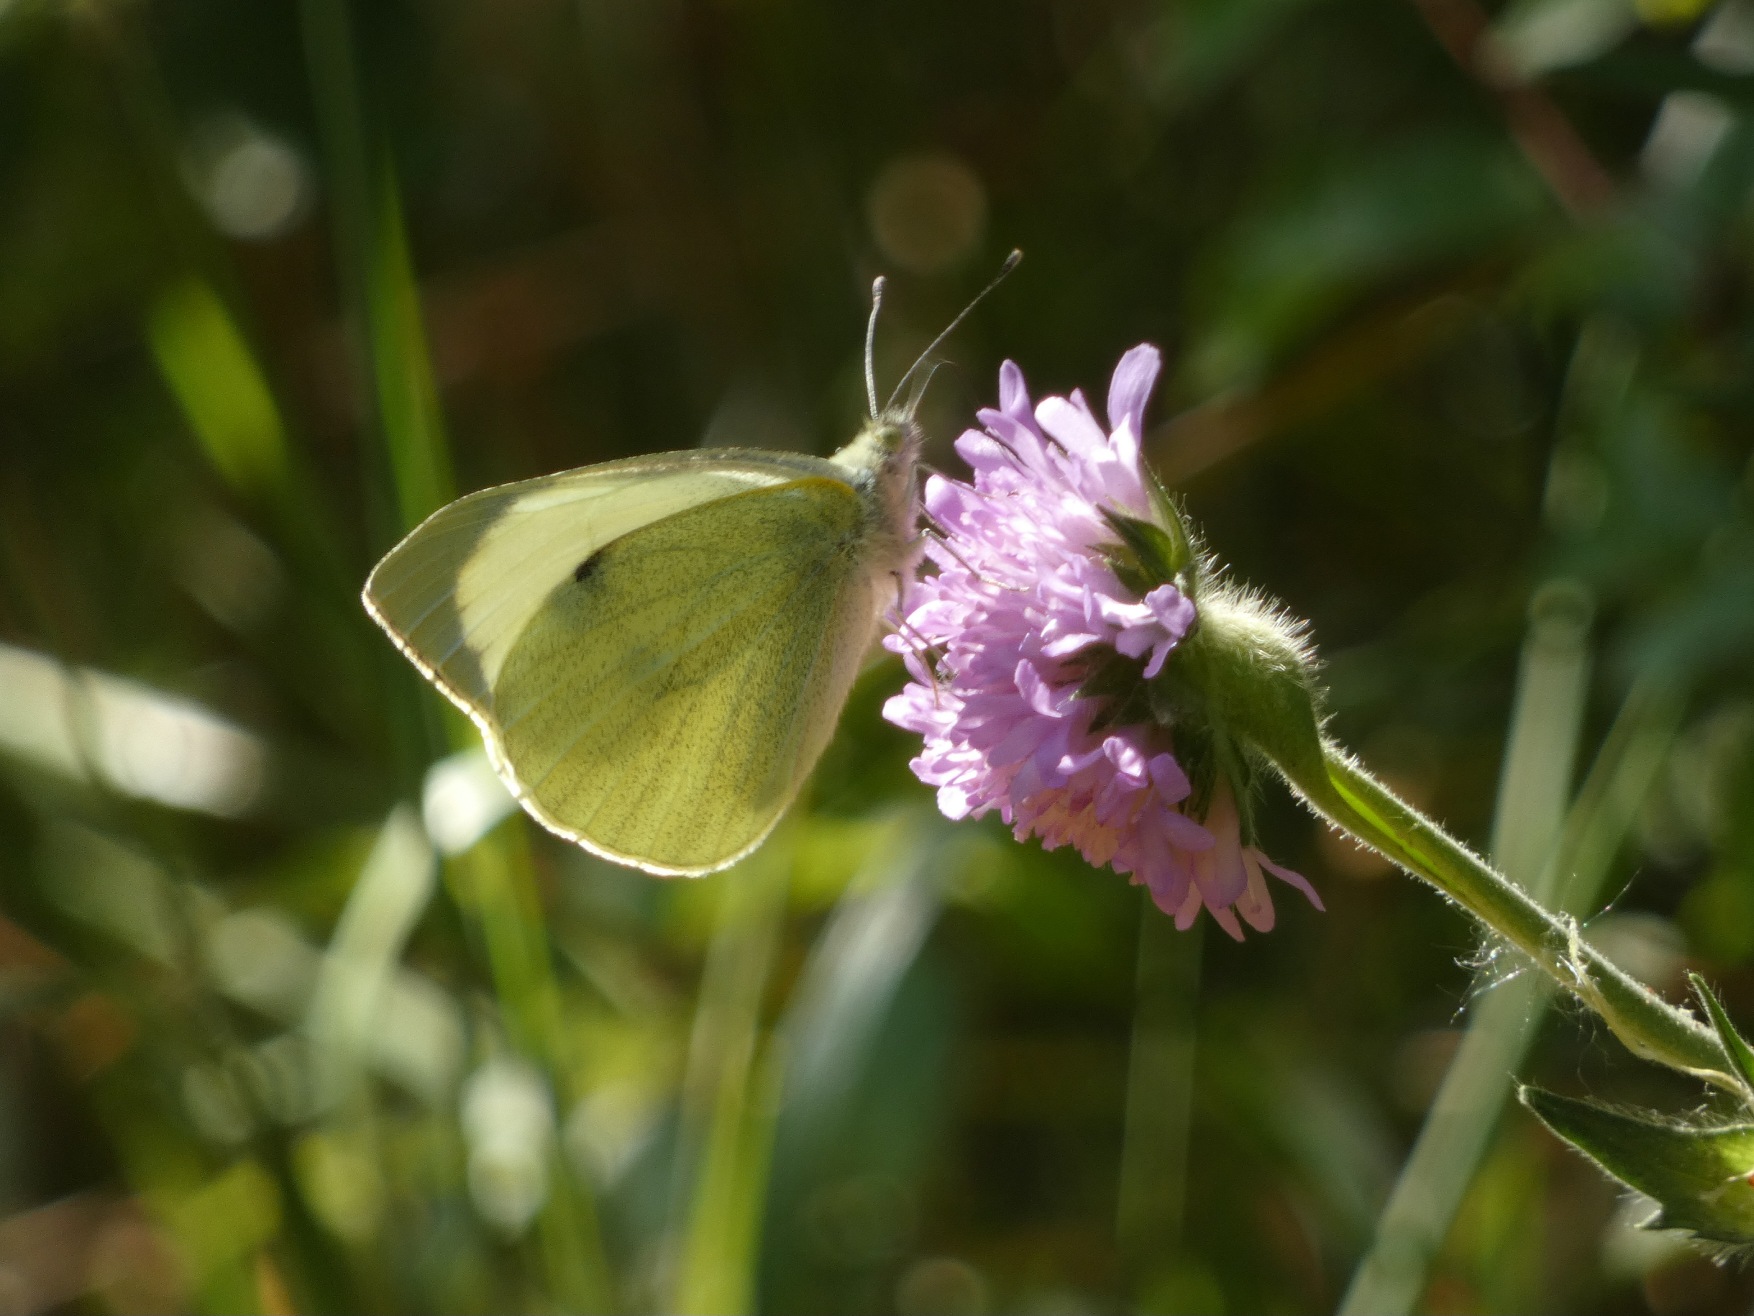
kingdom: Animalia
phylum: Arthropoda
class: Insecta
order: Lepidoptera
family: Pieridae
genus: Pieris
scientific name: Pieris brassicae
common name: Stor kålsommerfugl
